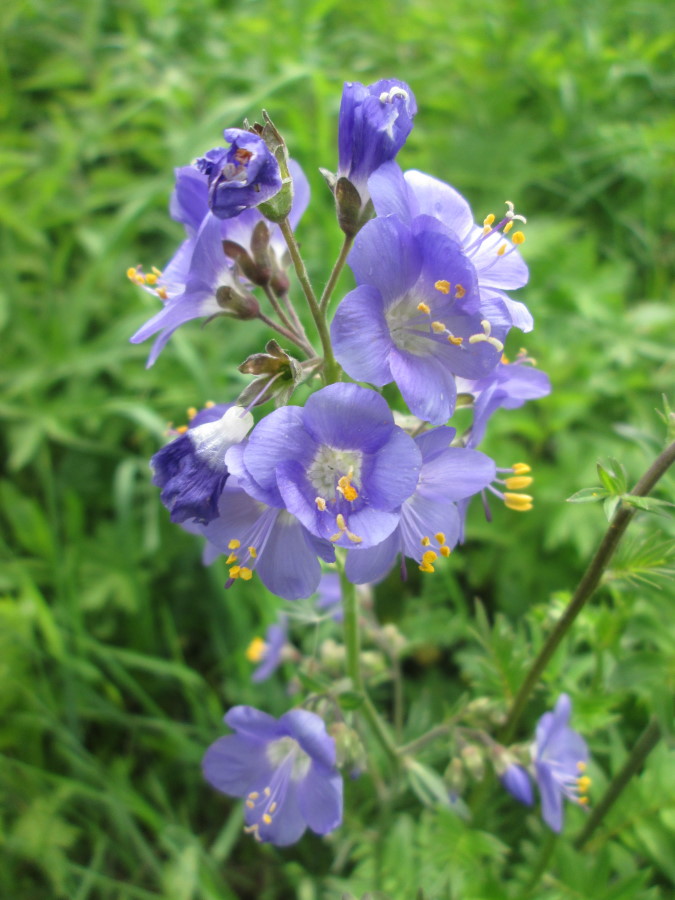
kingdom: Plantae
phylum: Tracheophyta
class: Magnoliopsida
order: Ericales
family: Polemoniaceae
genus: Polemonium
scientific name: Polemonium caeruleum
